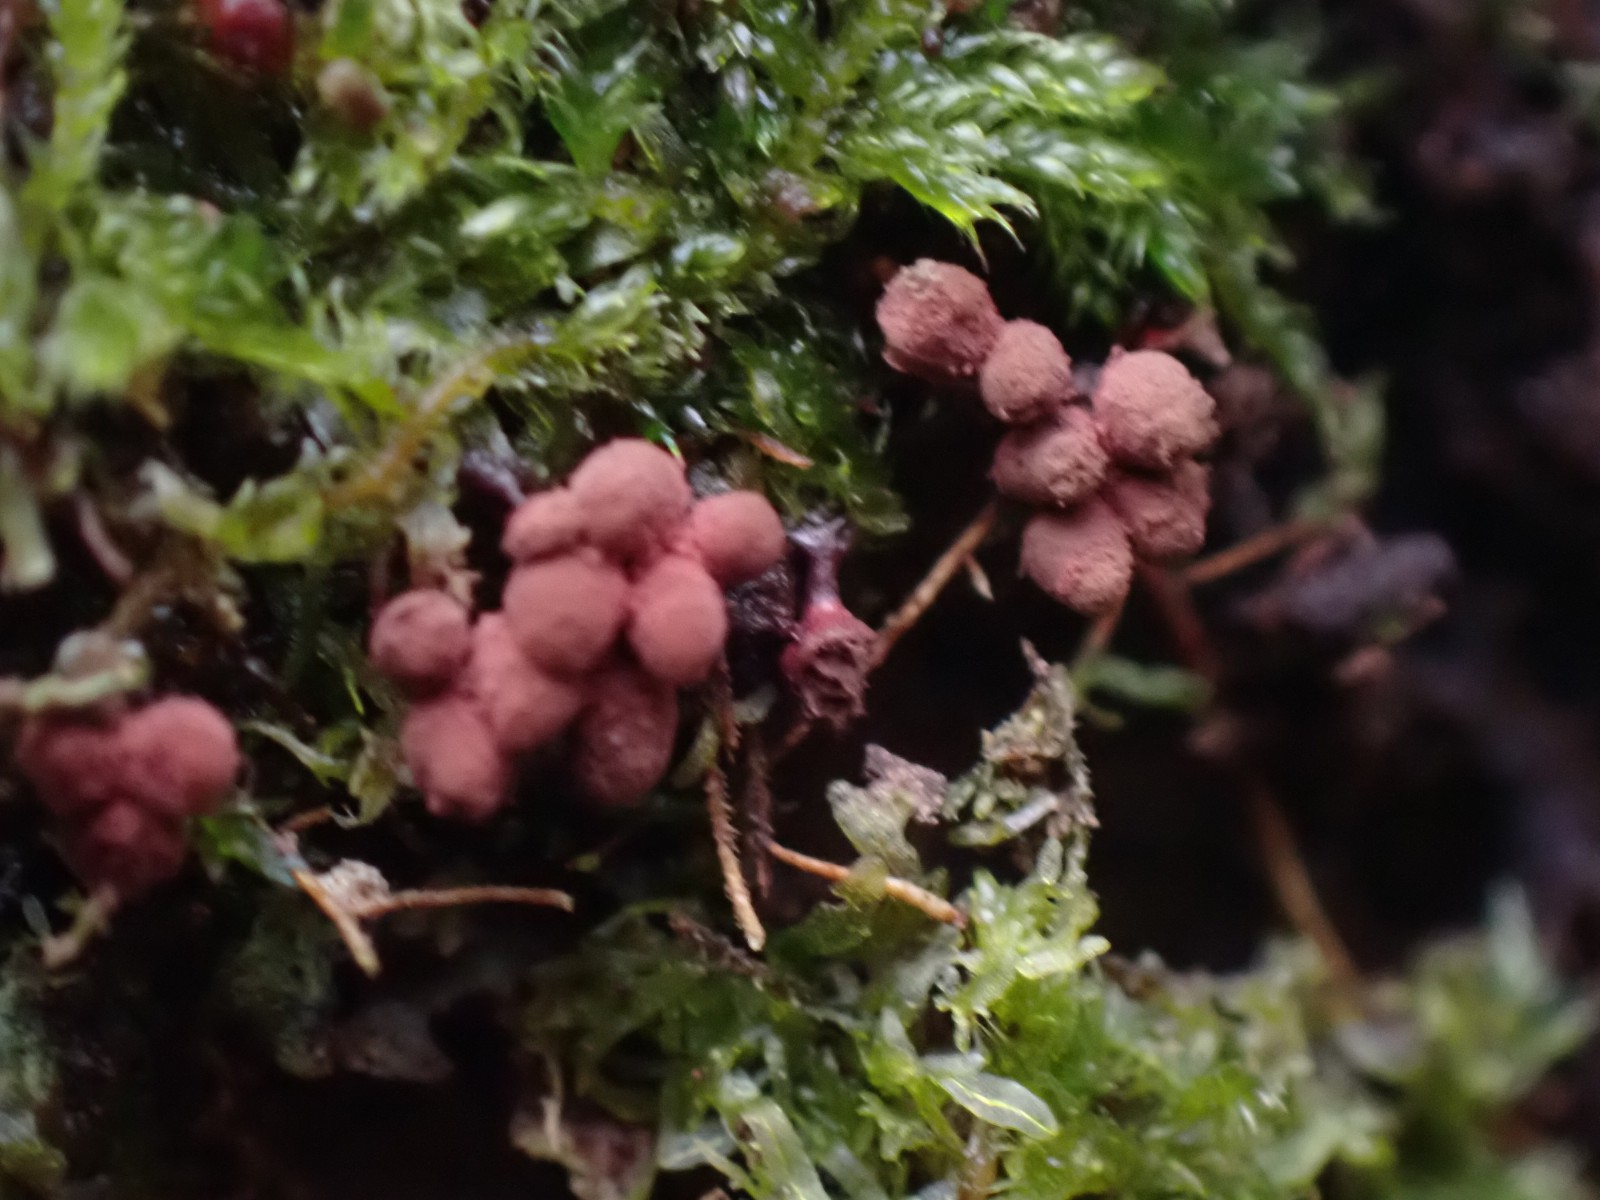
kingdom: Protozoa
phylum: Mycetozoa
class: Myxomycetes
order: Trichiales
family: Arcyriaceae
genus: Arcyria
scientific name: Arcyria denudata
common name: karminrød skålsvøb
